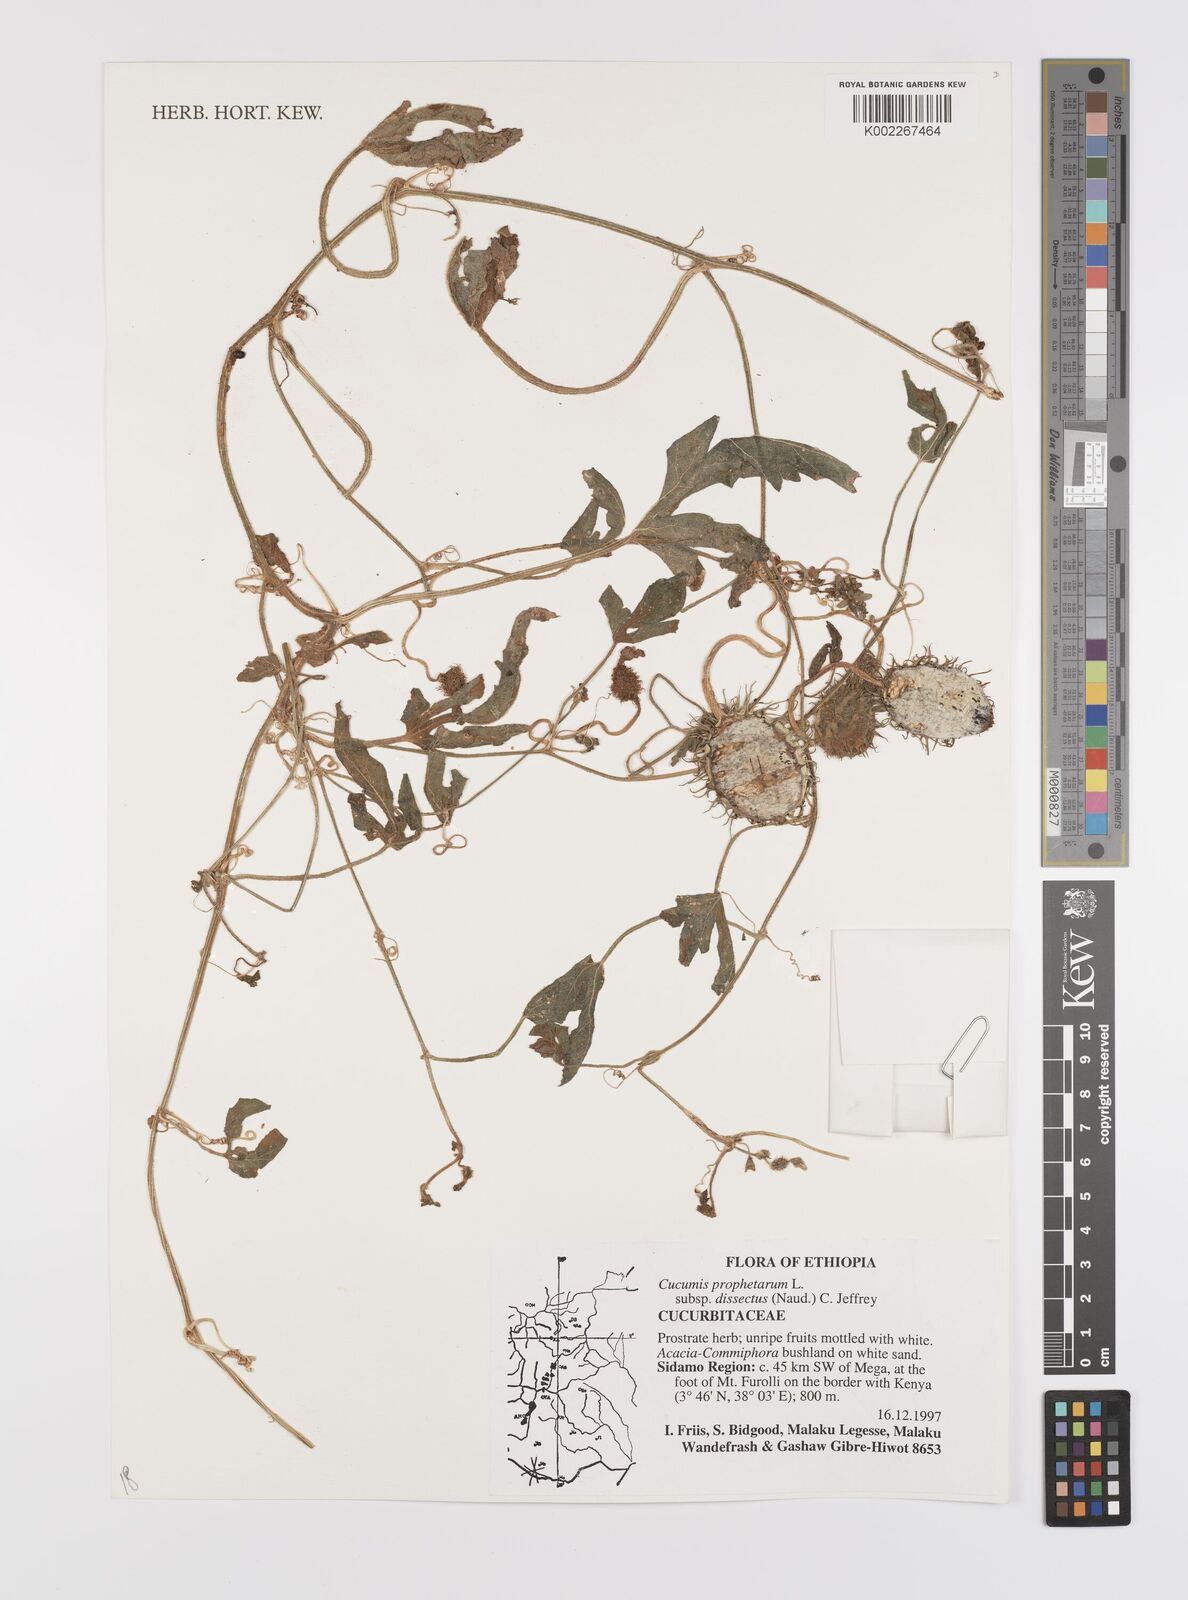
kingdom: Plantae
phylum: Tracheophyta
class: Magnoliopsida
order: Cucurbitales
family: Cucurbitaceae
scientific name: Cucurbitaceae
